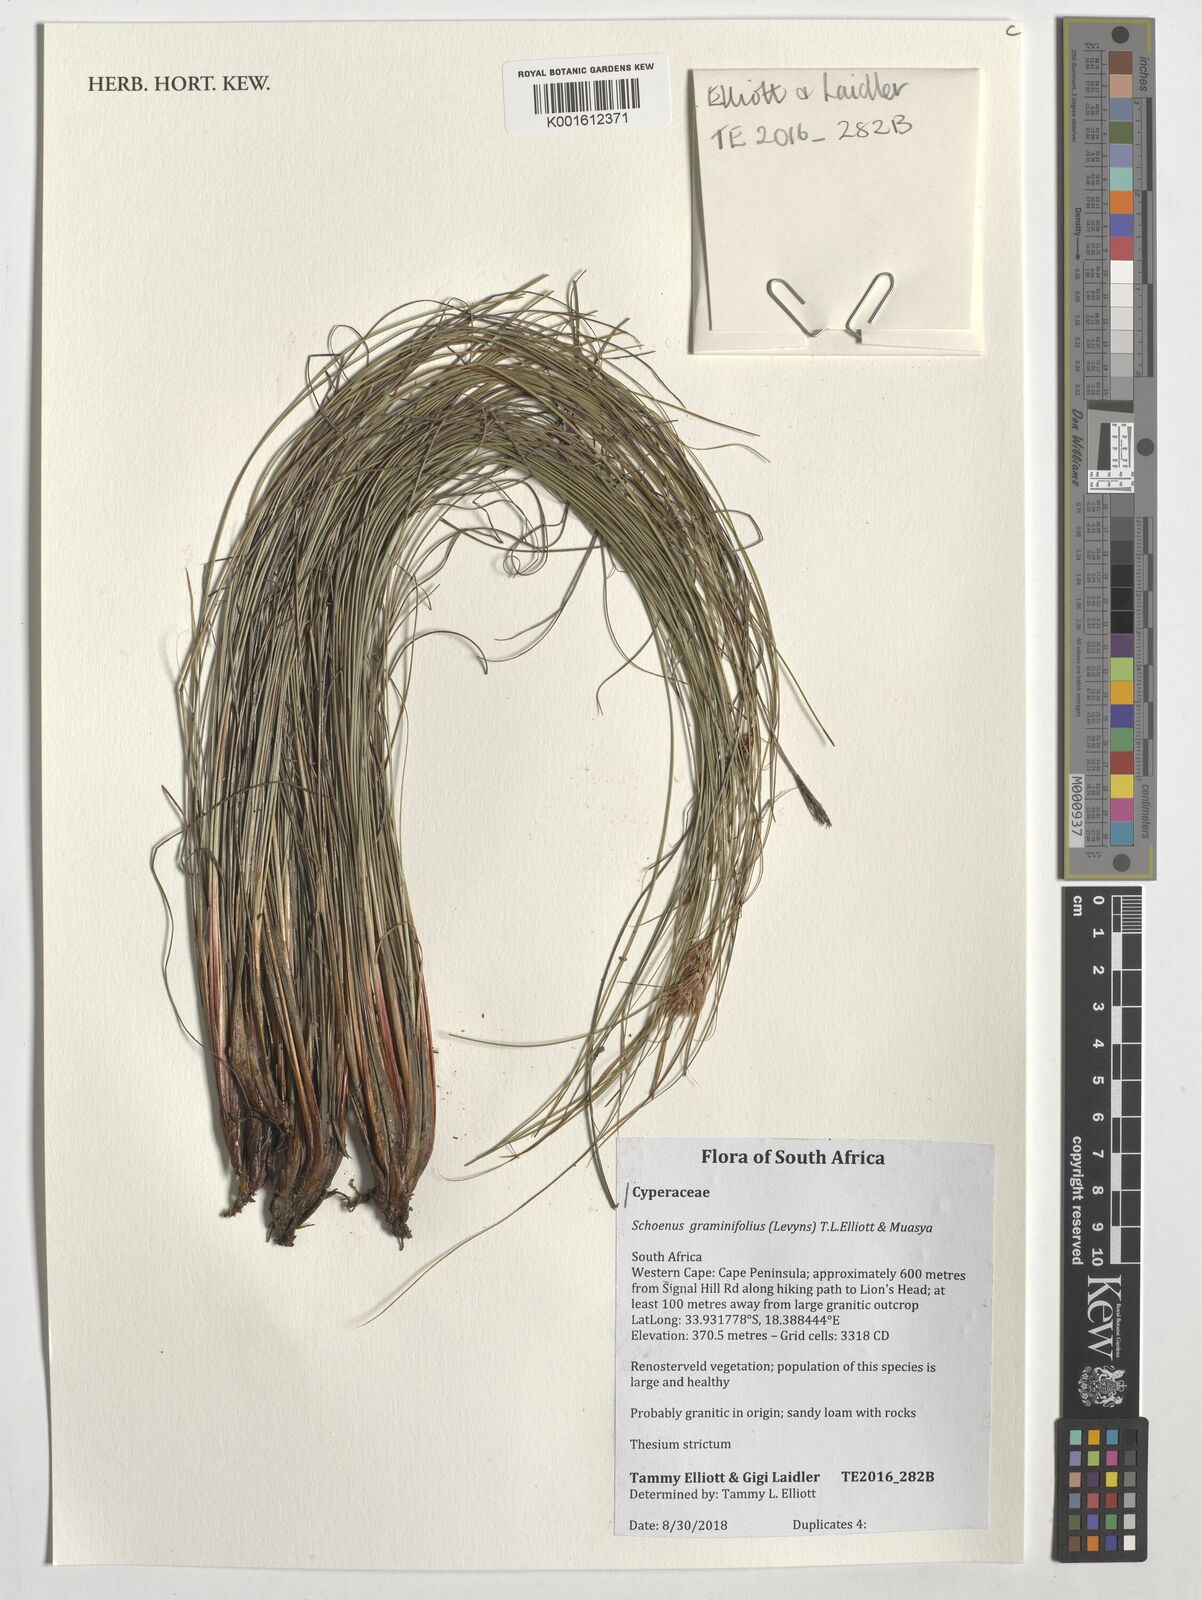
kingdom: Plantae
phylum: Tracheophyta
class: Liliopsida
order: Poales
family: Cyperaceae
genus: Schoenus
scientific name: Schoenus graminifolius
